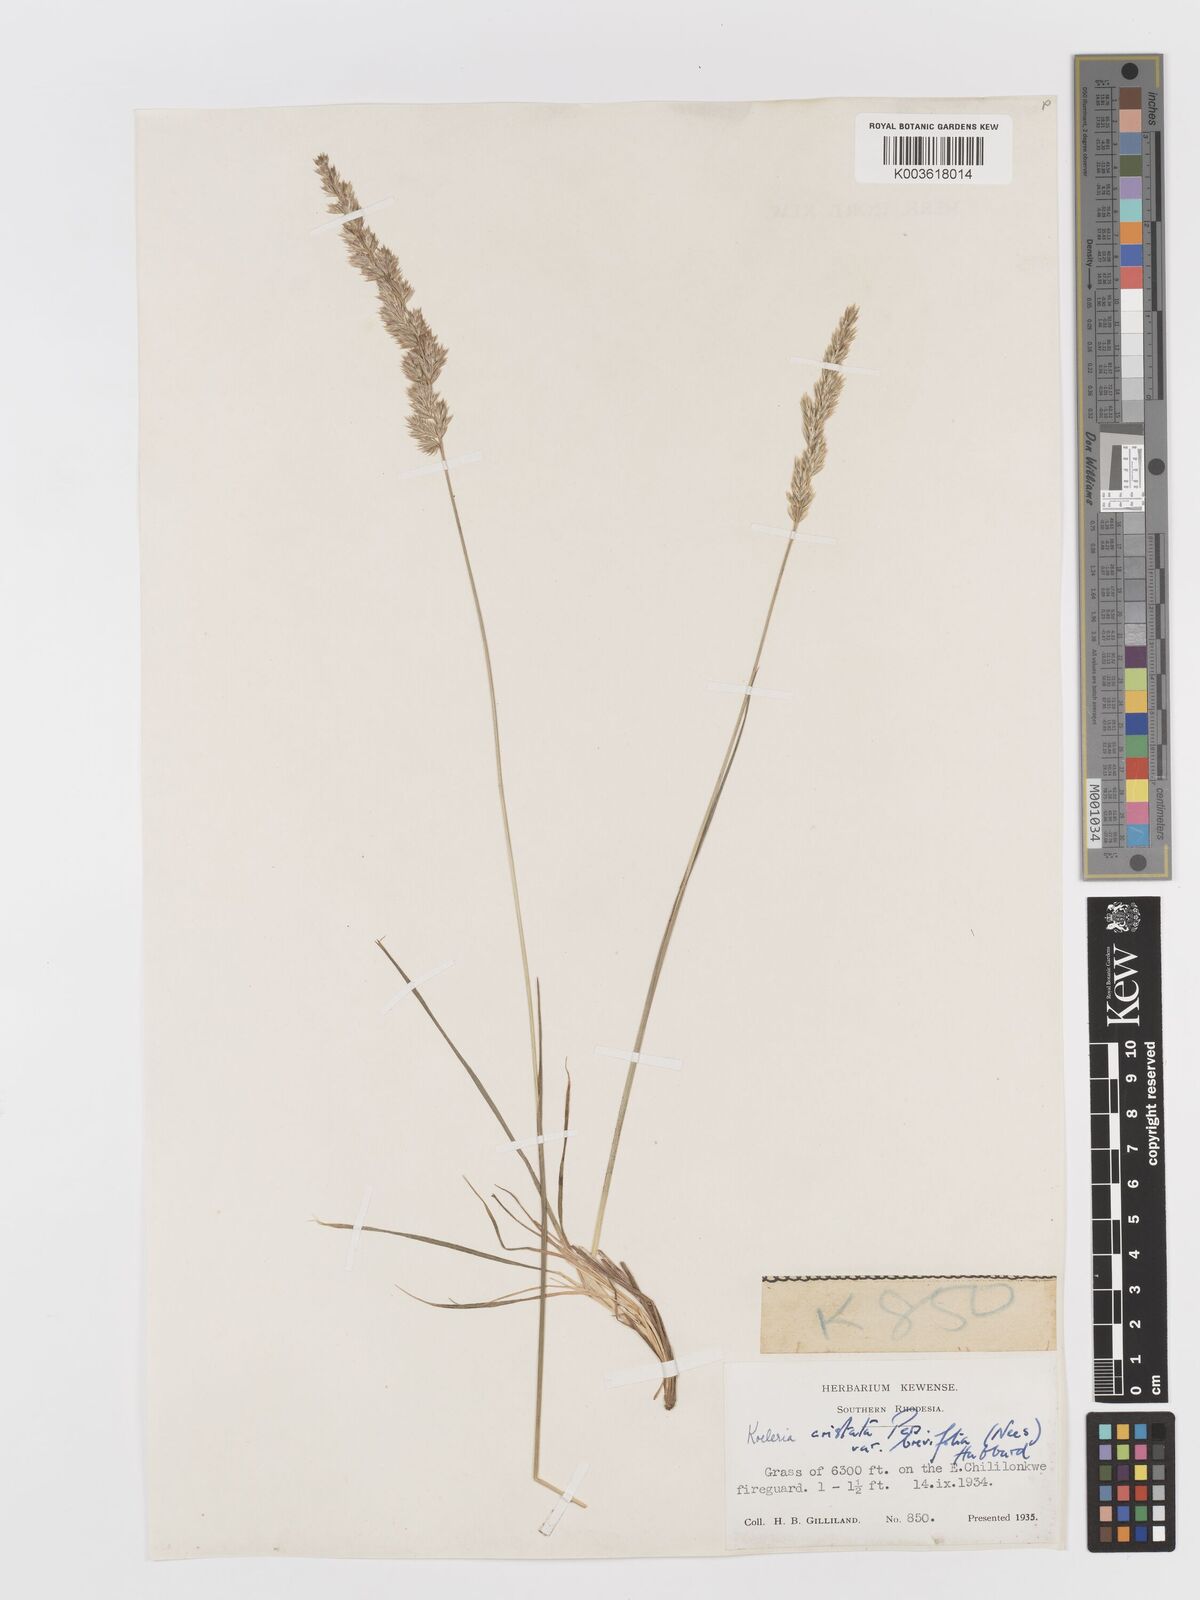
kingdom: Plantae
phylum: Tracheophyta
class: Liliopsida
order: Poales
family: Poaceae
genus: Koeleria
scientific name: Koeleria capensis
